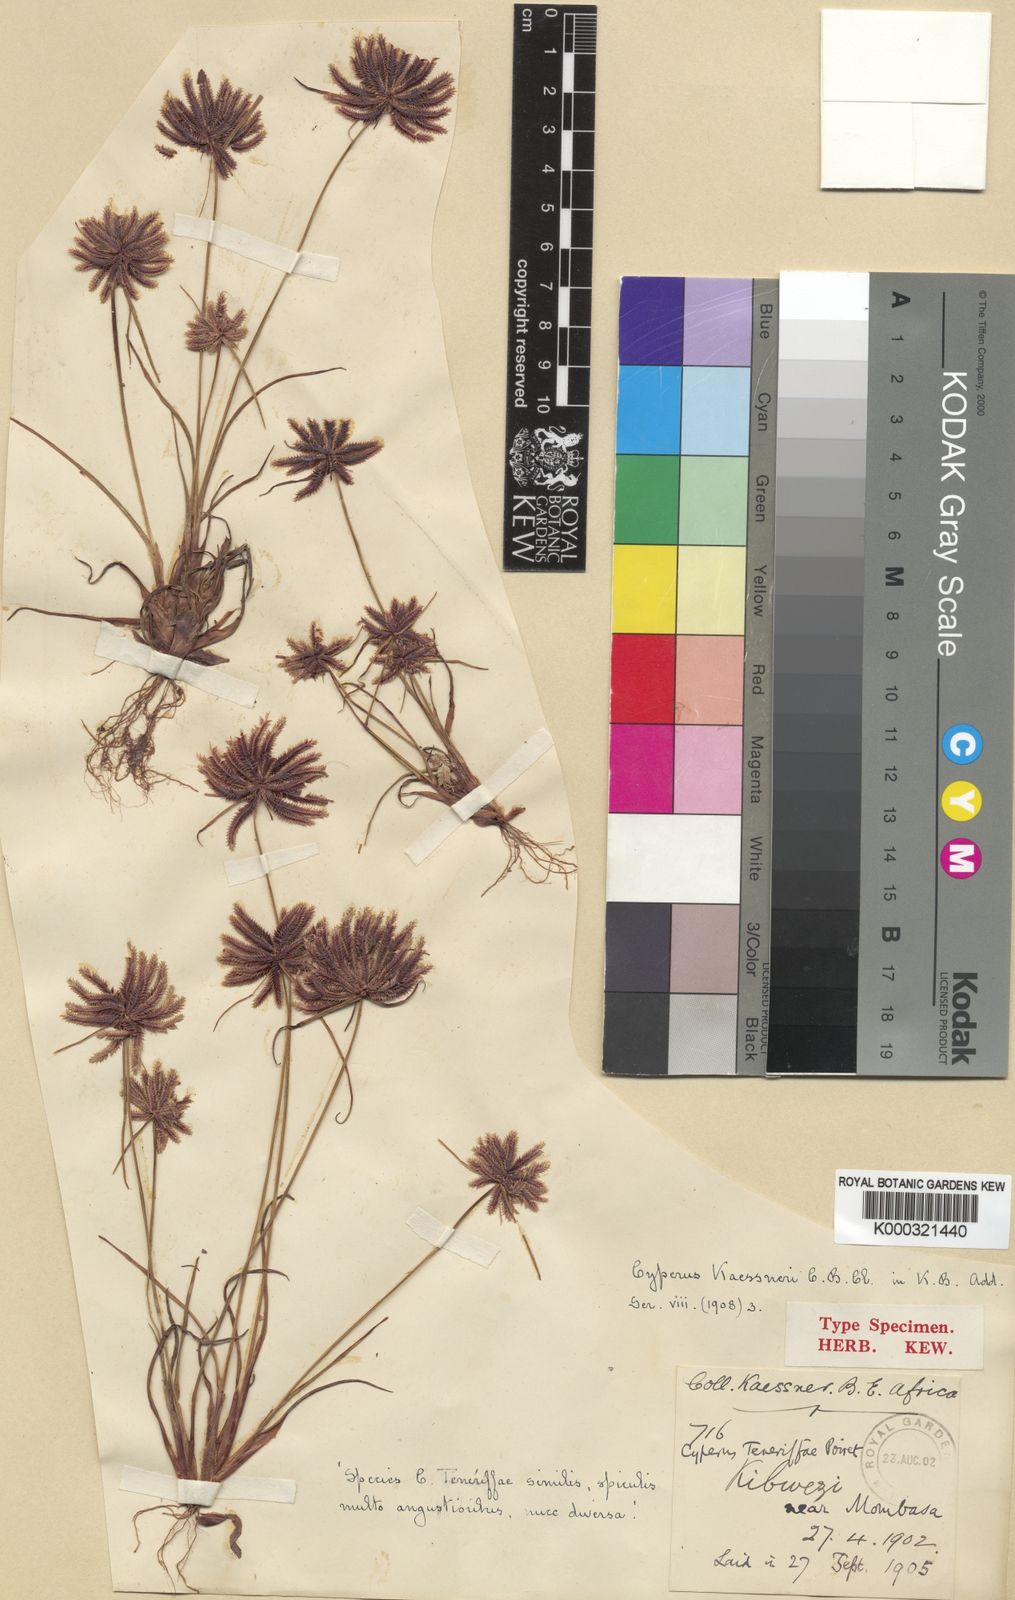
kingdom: Plantae
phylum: Tracheophyta
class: Liliopsida
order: Poales
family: Cyperaceae
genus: Cyperus
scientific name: Cyperus kaessneri
